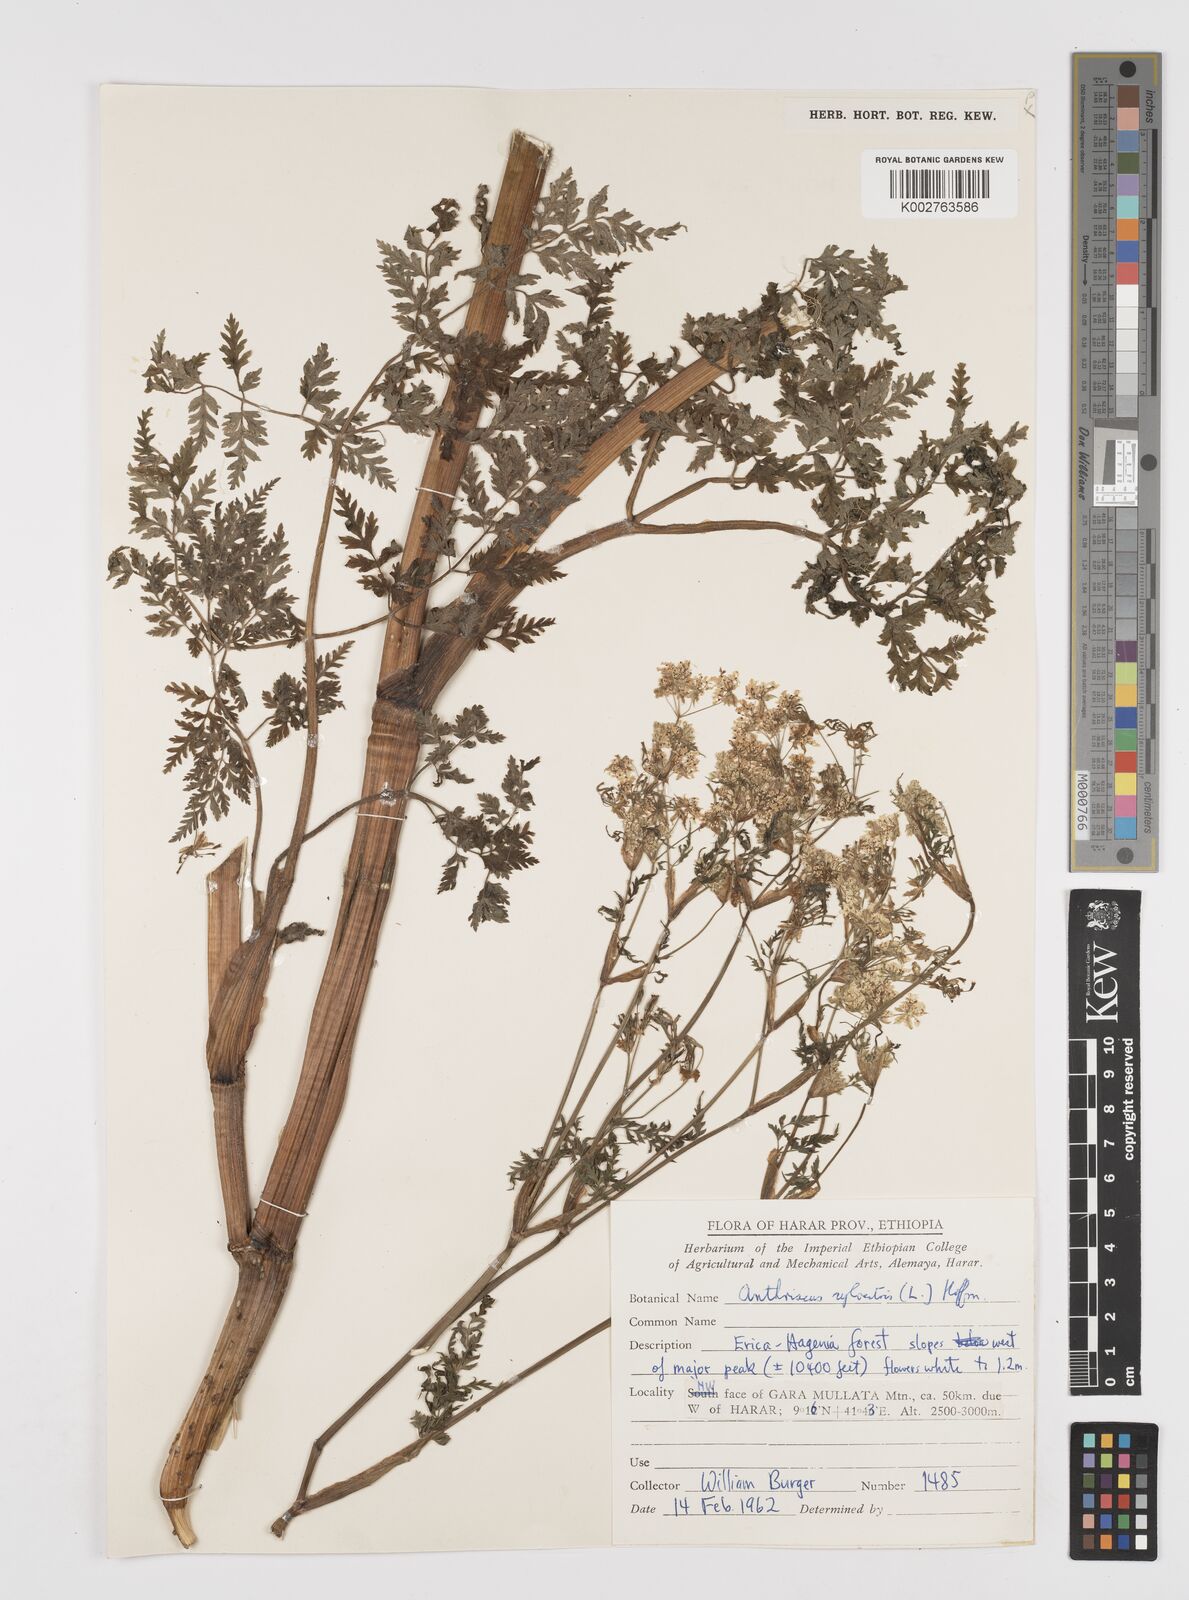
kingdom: Plantae
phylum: Tracheophyta
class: Magnoliopsida
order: Apiales
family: Apiaceae
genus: Anthriscus
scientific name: Anthriscus sylvestris
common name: Cow parsley
